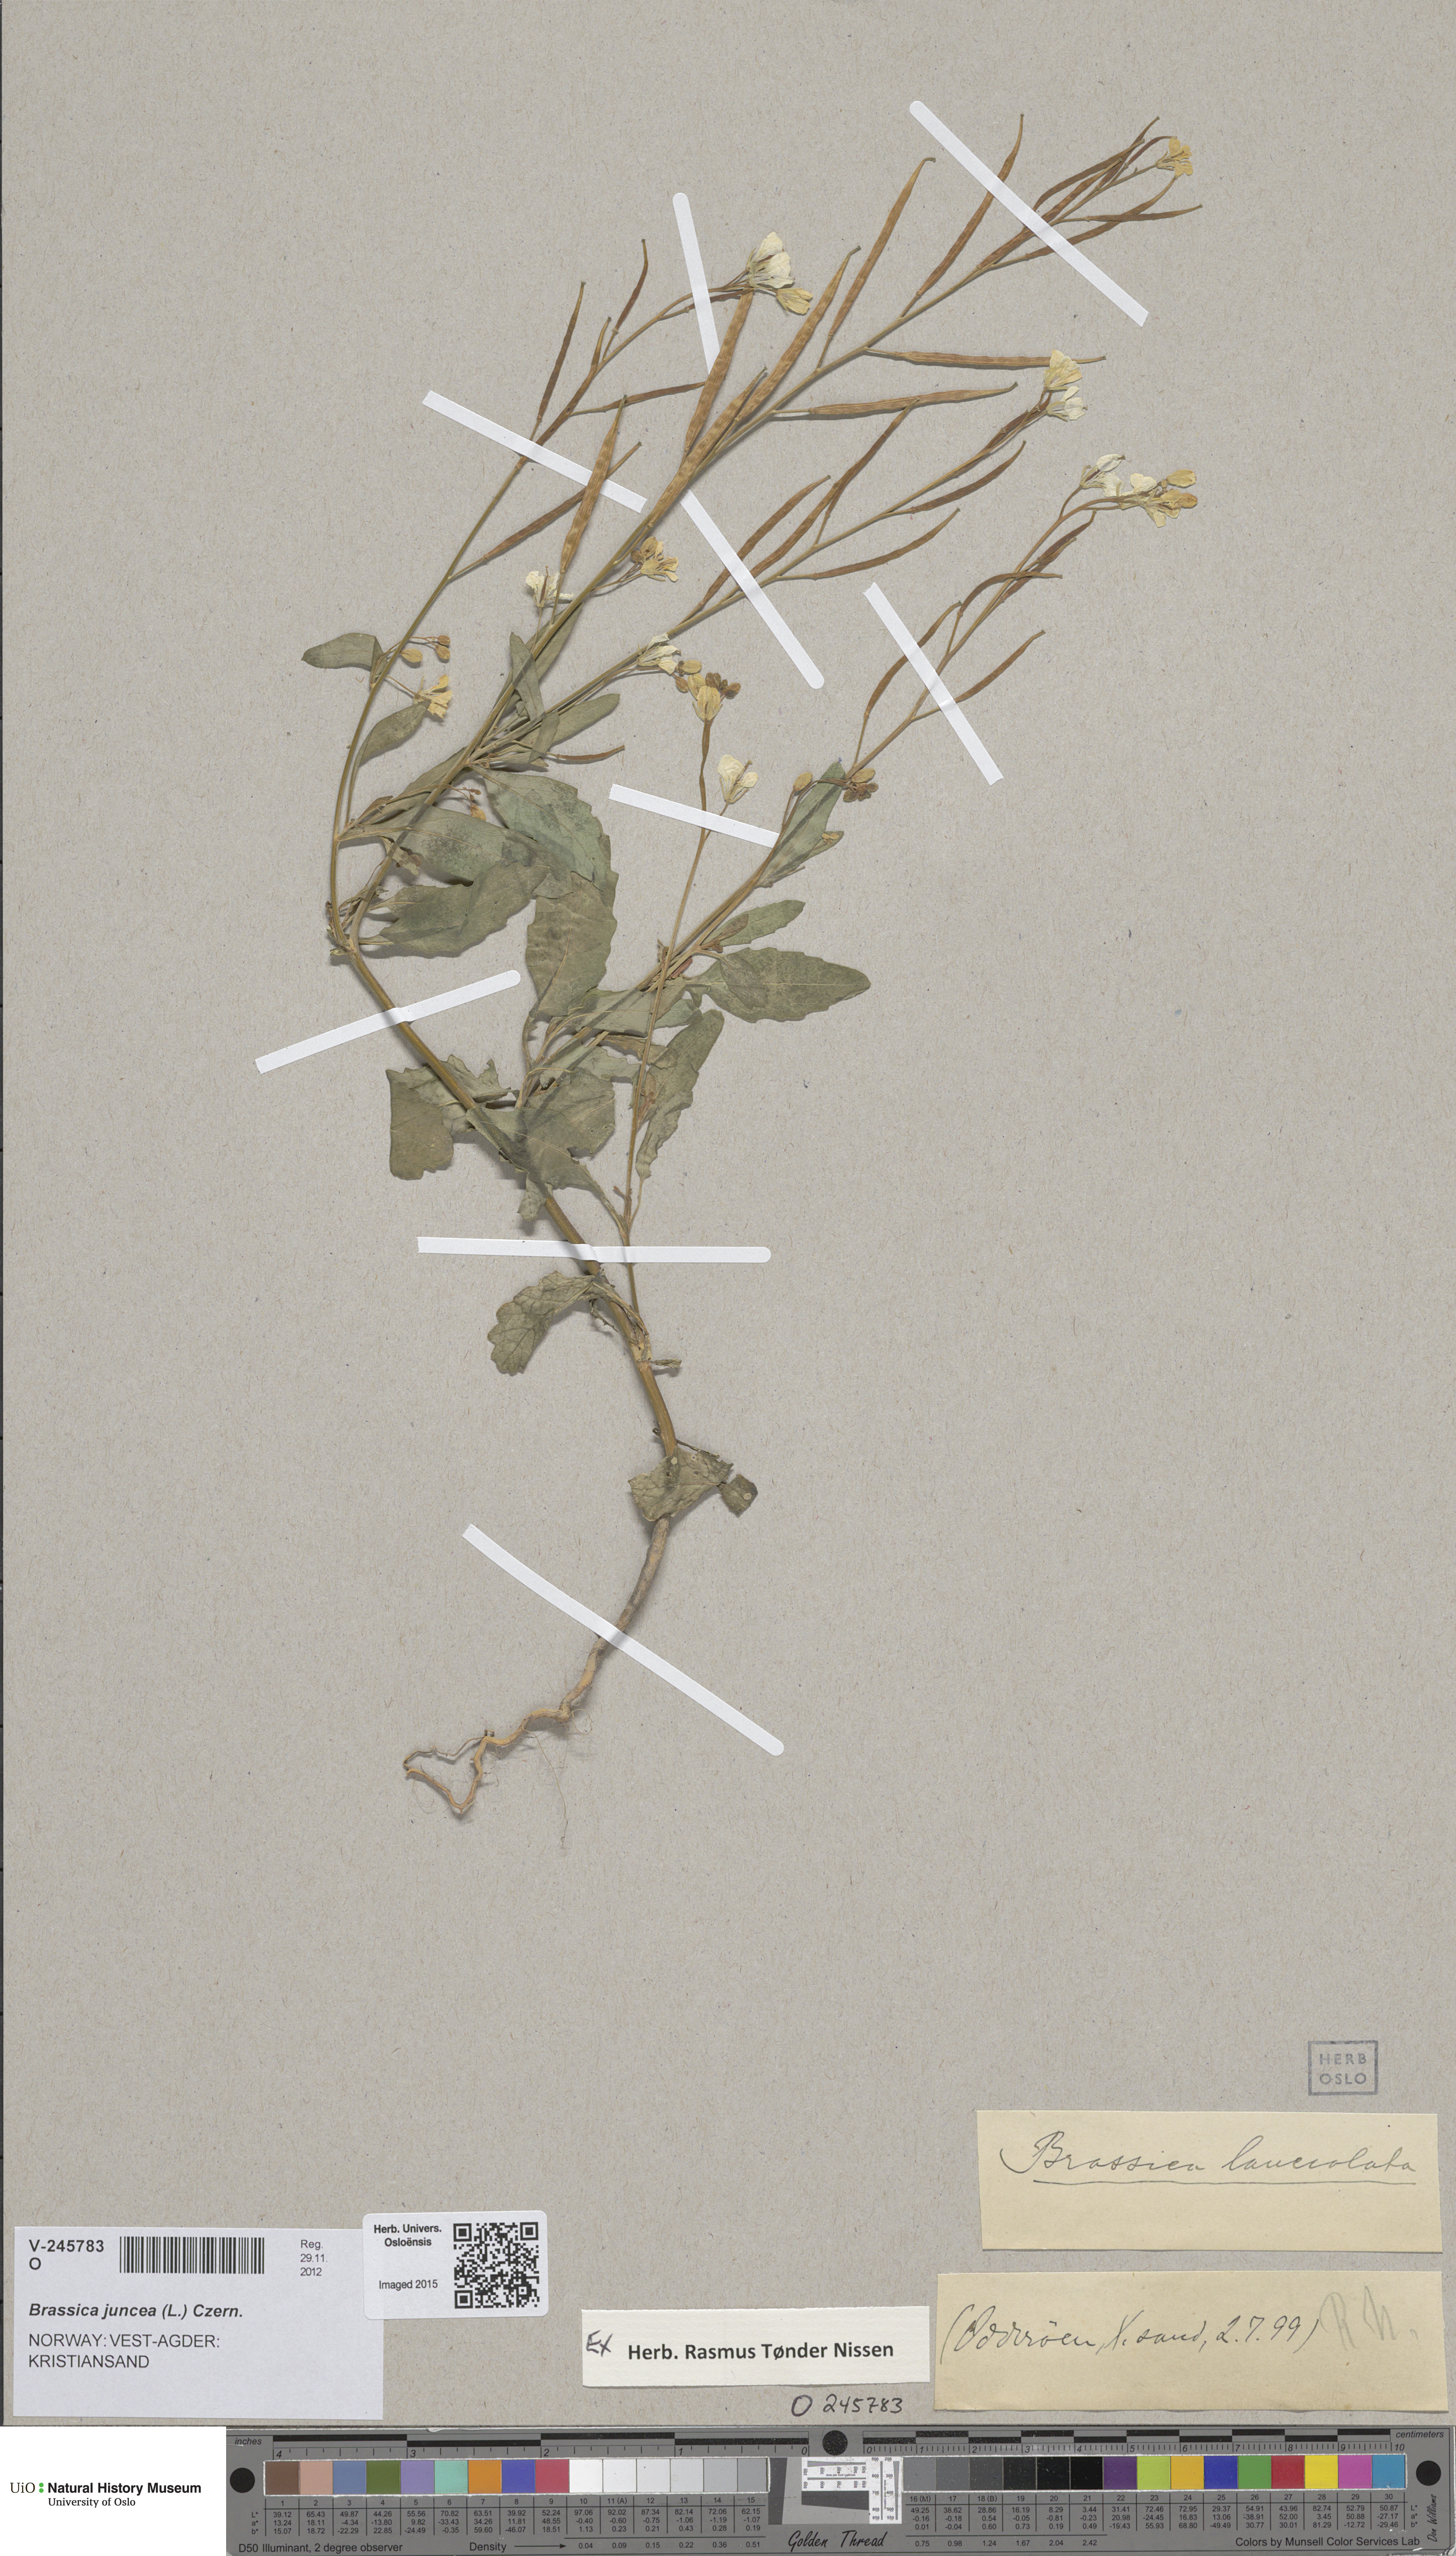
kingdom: Plantae
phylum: Tracheophyta
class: Magnoliopsida
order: Brassicales
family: Brassicaceae
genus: Brassica
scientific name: Brassica juncea
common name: Brown mustard
